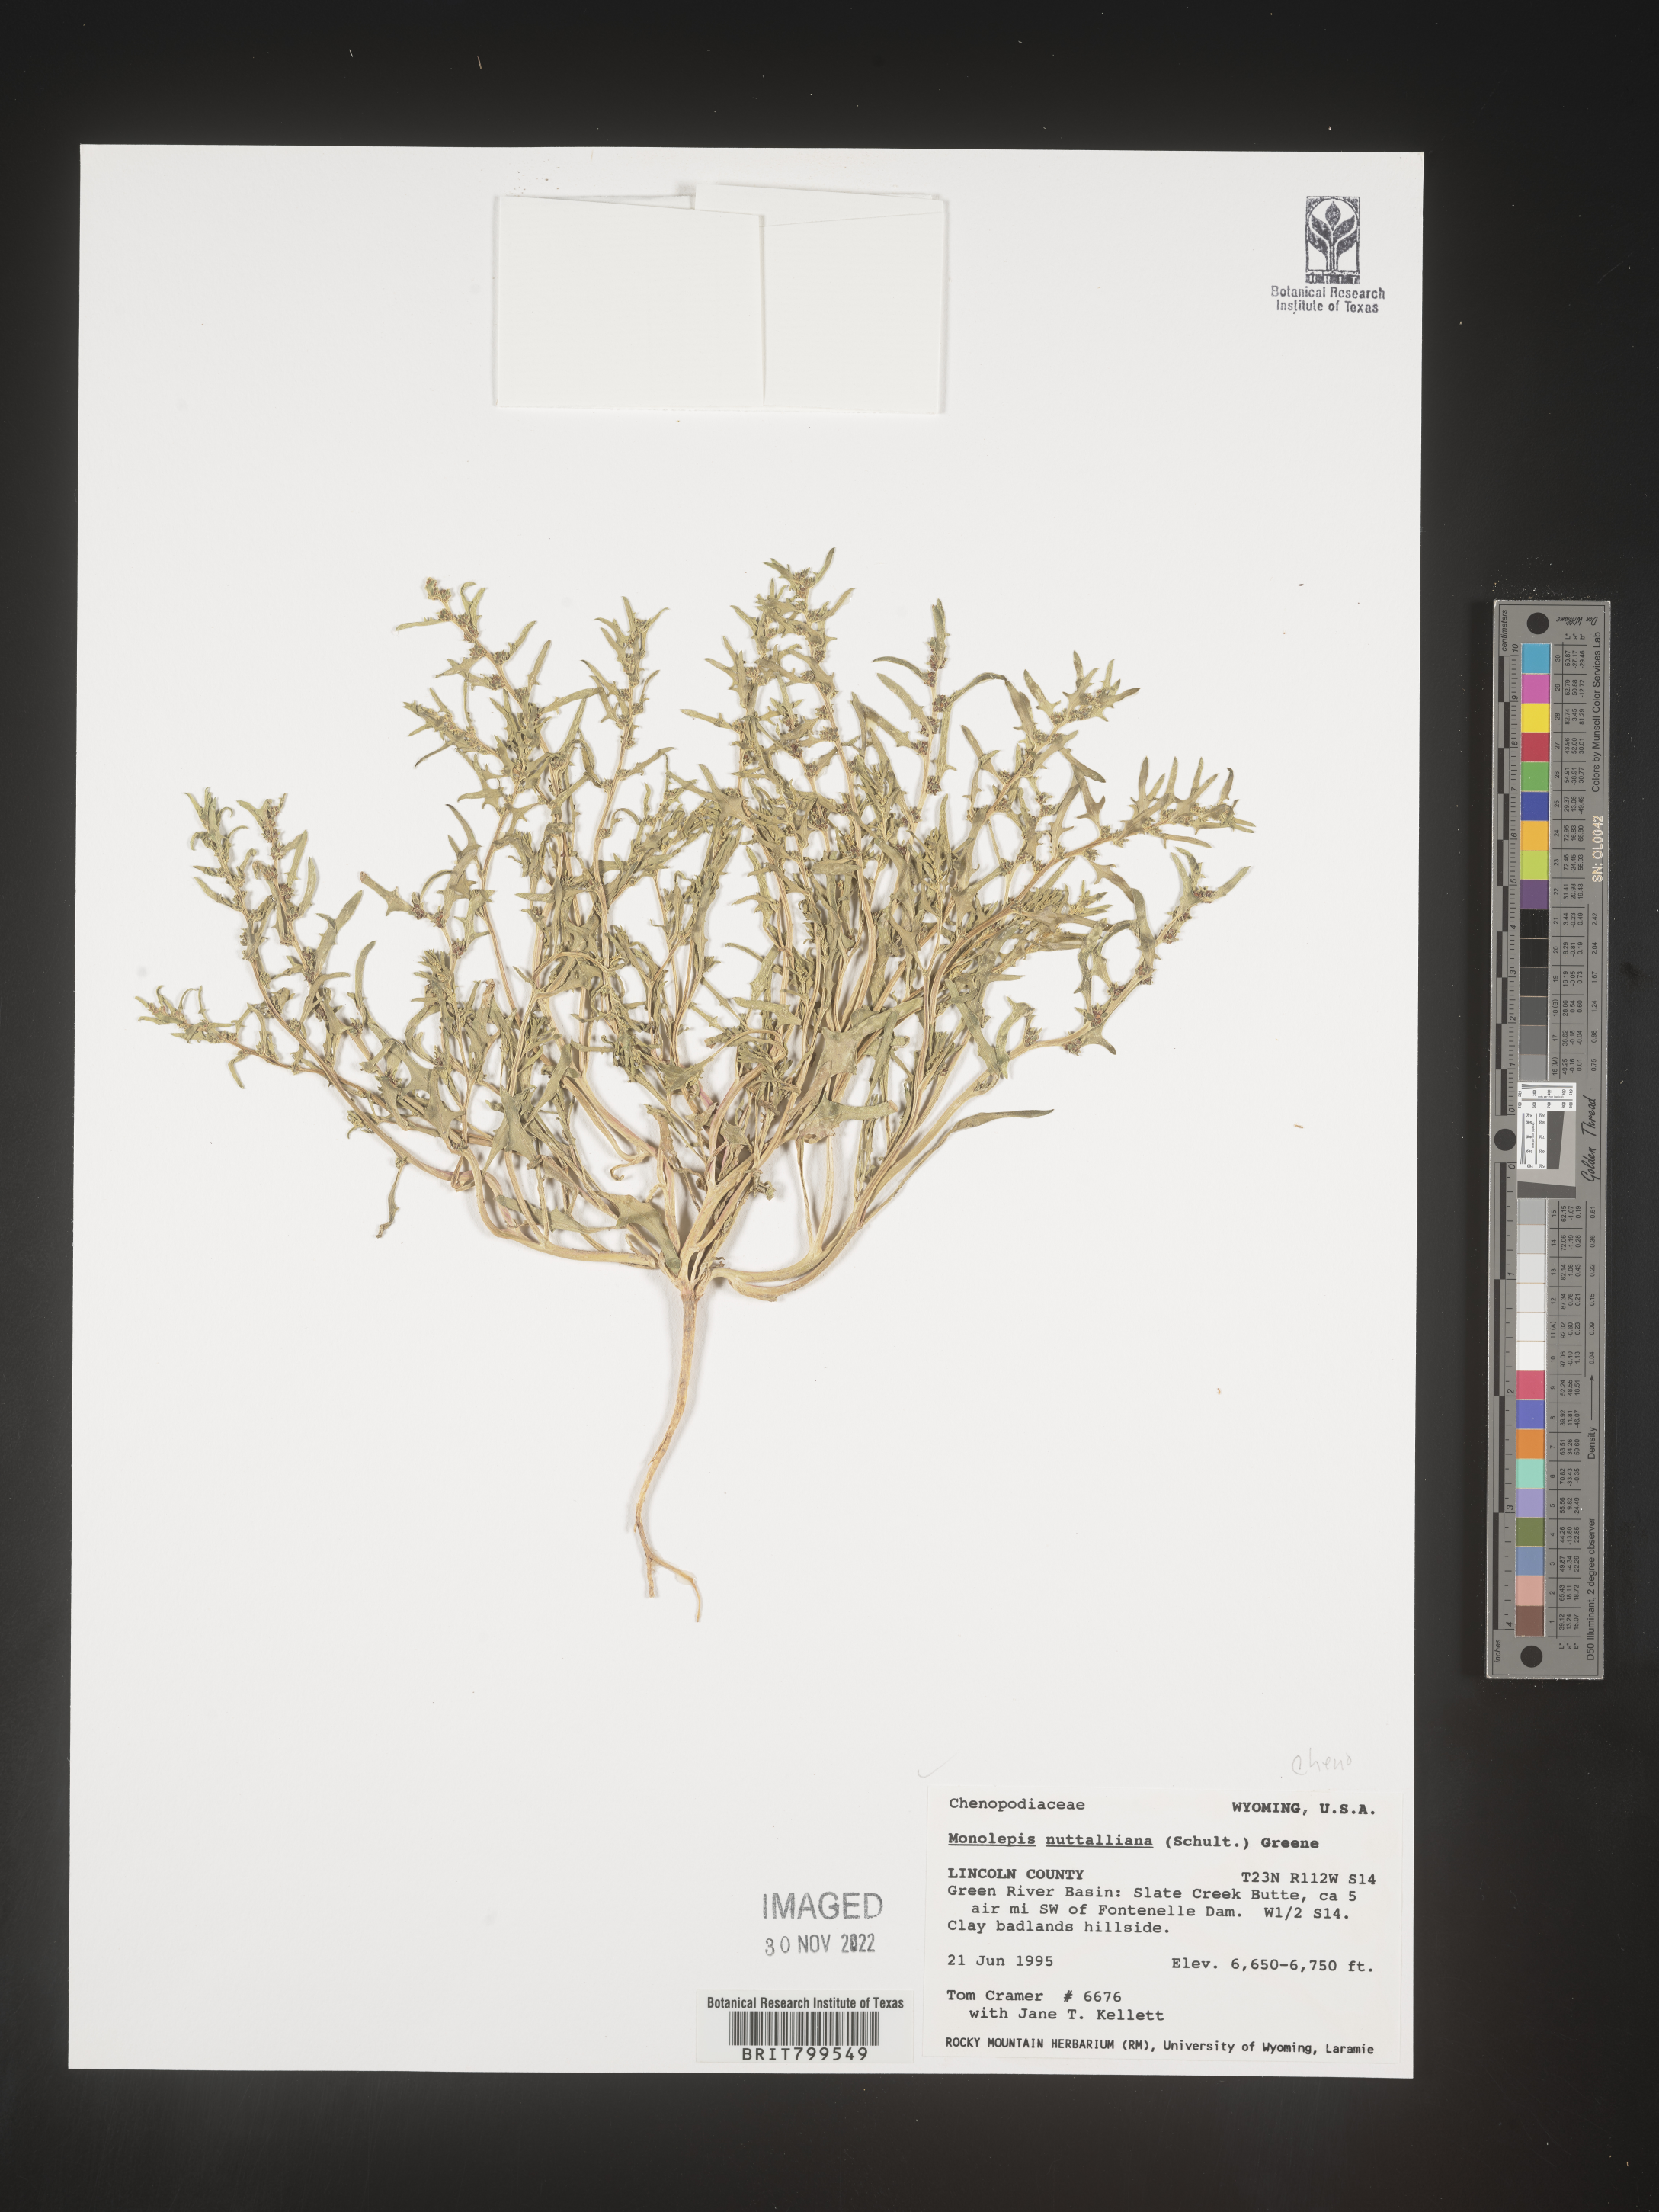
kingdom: Plantae
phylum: Tracheophyta
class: Magnoliopsida
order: Caryophyllales
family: Amaranthaceae
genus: Blitum
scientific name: Blitum
